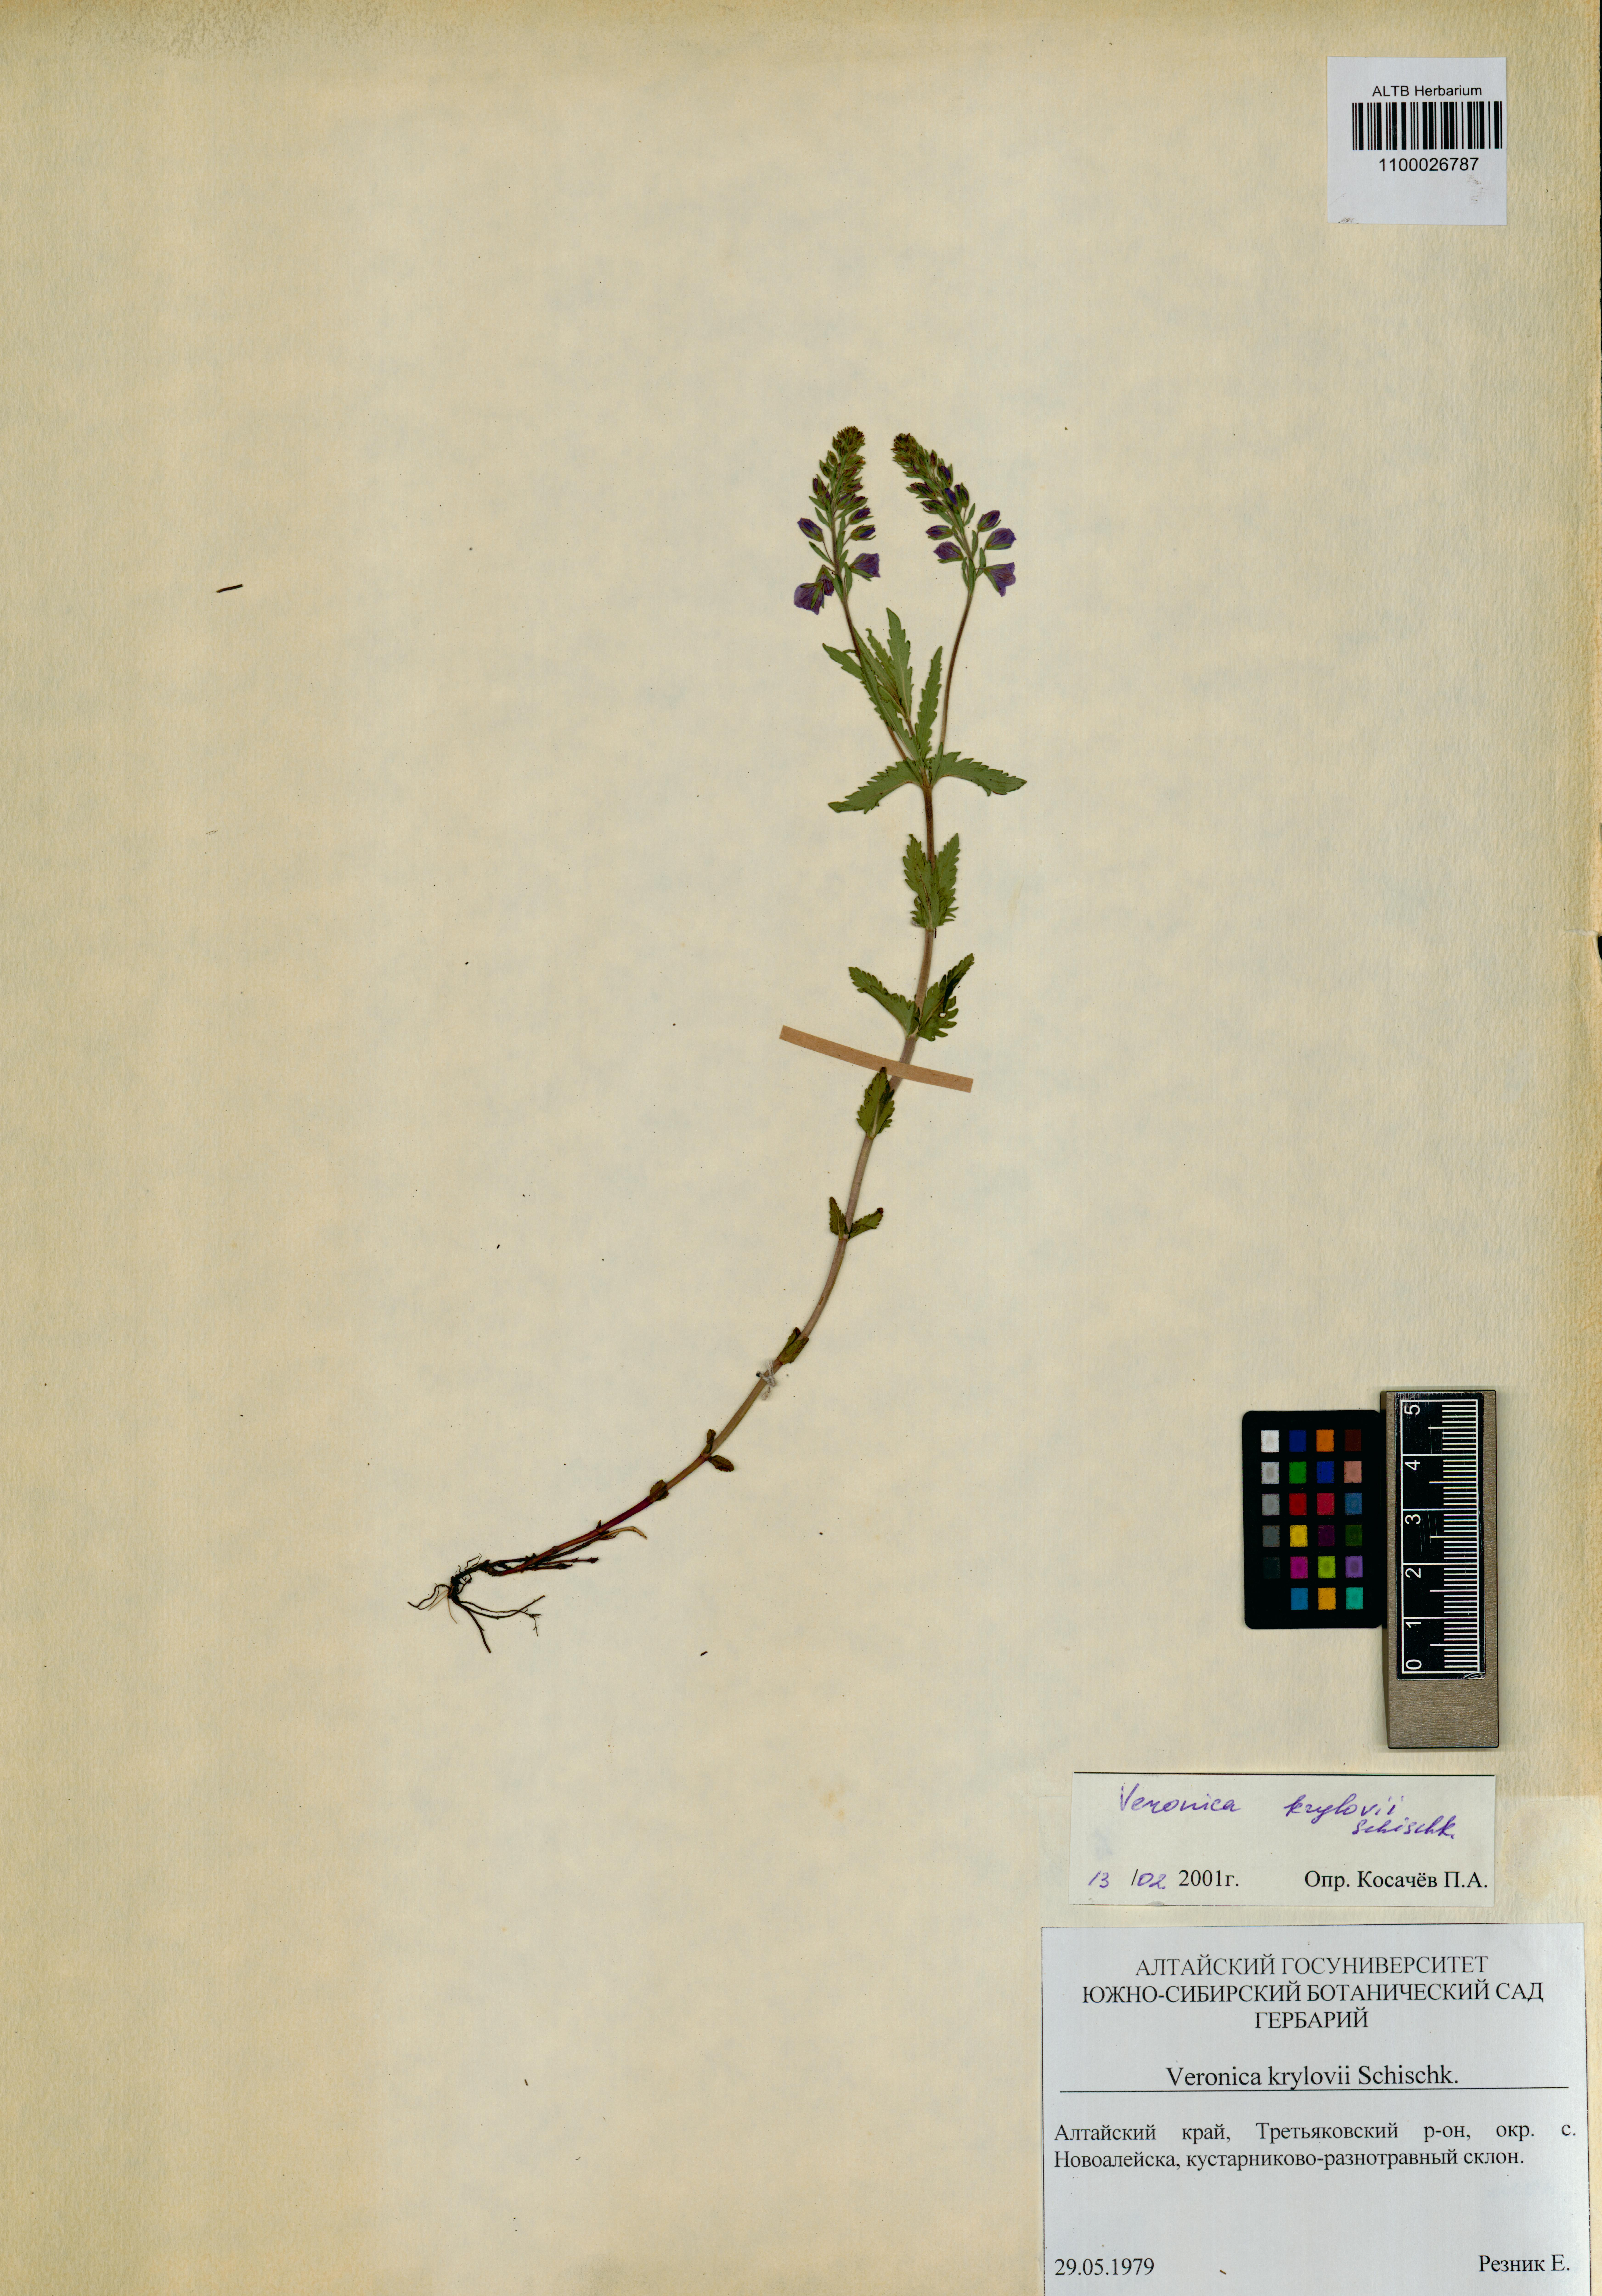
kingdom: Plantae
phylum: Tracheophyta
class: Magnoliopsida
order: Lamiales
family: Plantaginaceae
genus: Veronica
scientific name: Veronica krylovii
